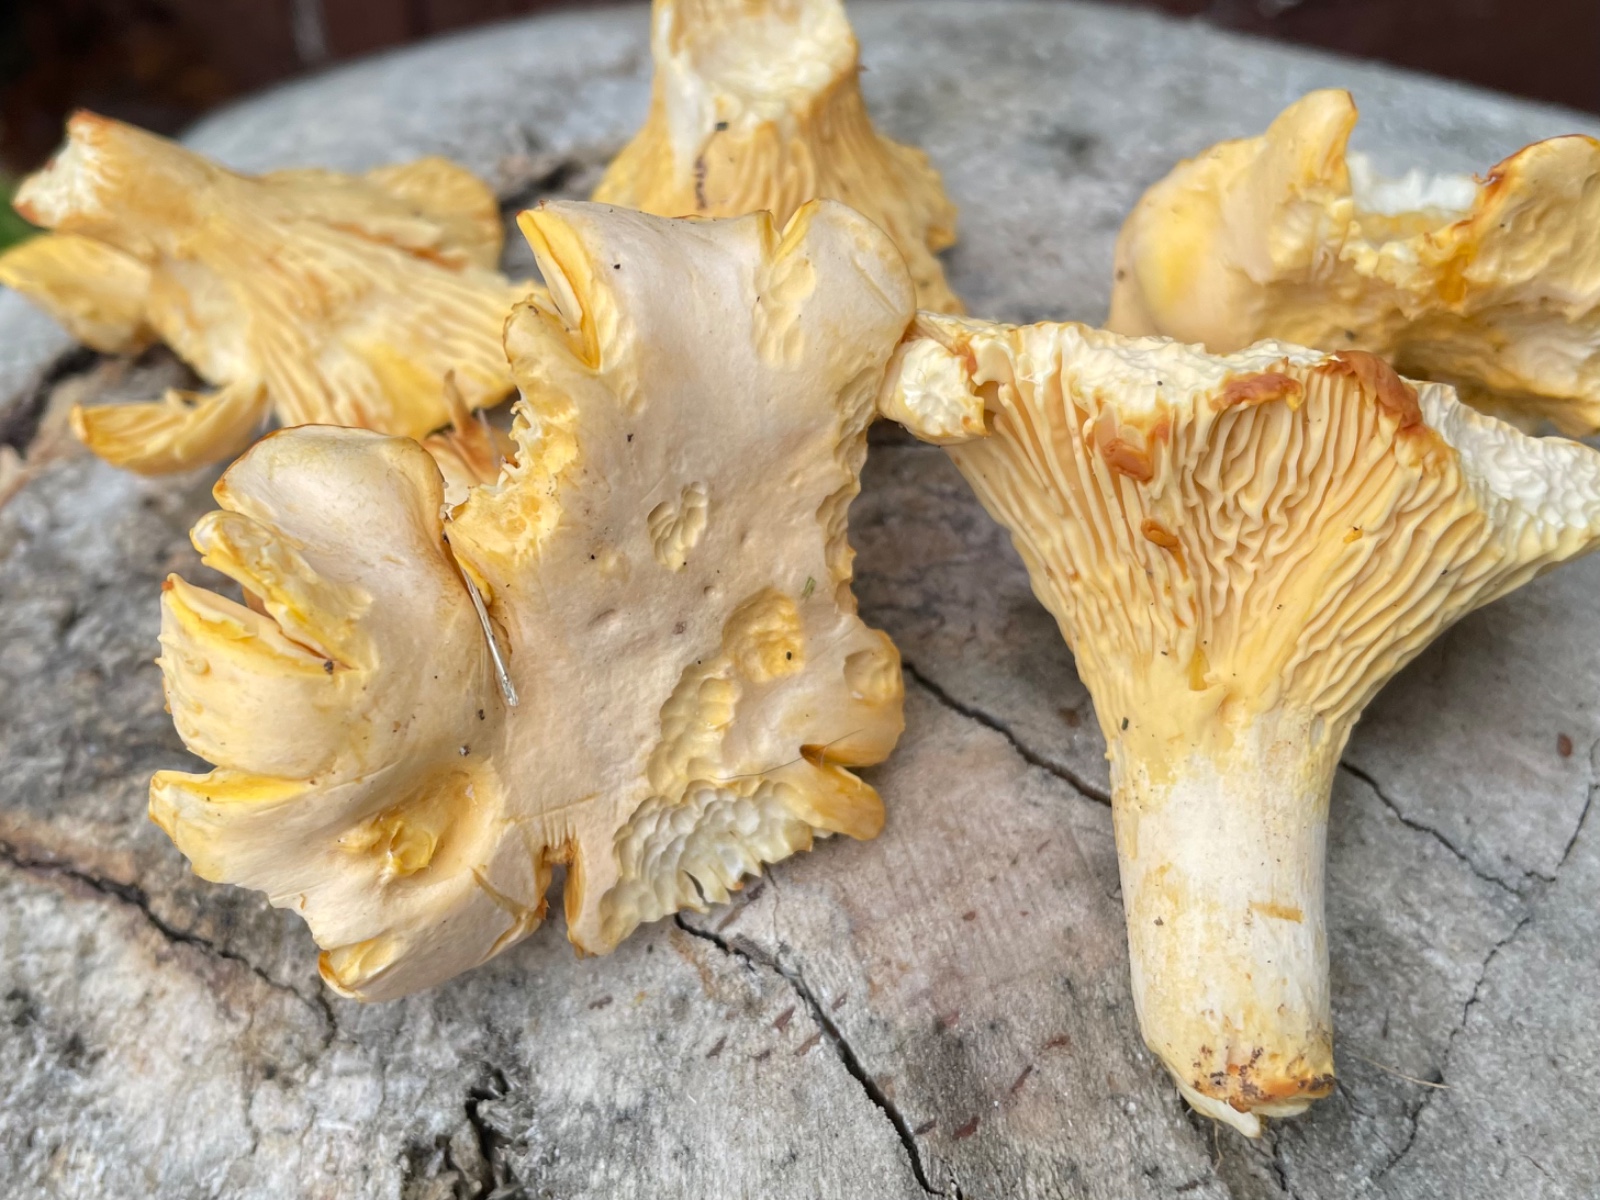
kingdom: Fungi
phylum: Basidiomycota
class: Agaricomycetes
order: Cantharellales
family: Hydnaceae
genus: Cantharellus
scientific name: Cantharellus pallens
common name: bleg kantarel
